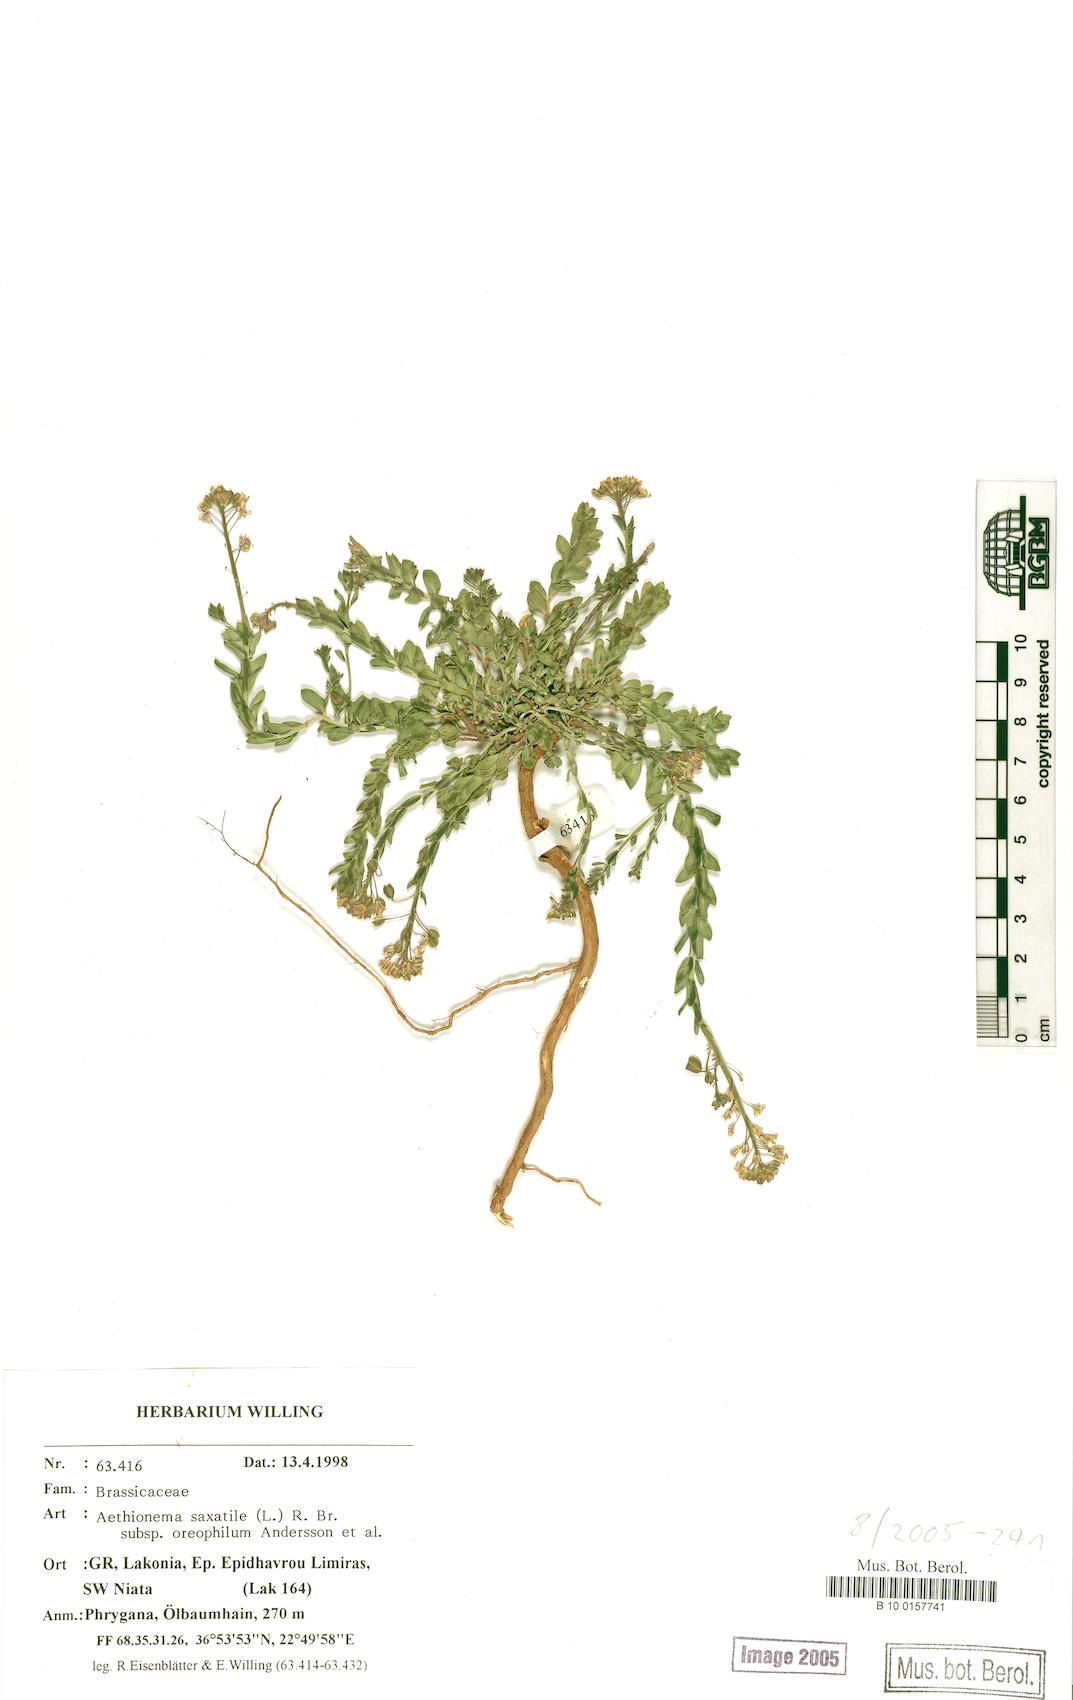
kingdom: Plantae
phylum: Tracheophyta
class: Magnoliopsida
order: Brassicales
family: Brassicaceae
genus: Aethionema
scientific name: Aethionema saxatile
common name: Burnt candytuft
